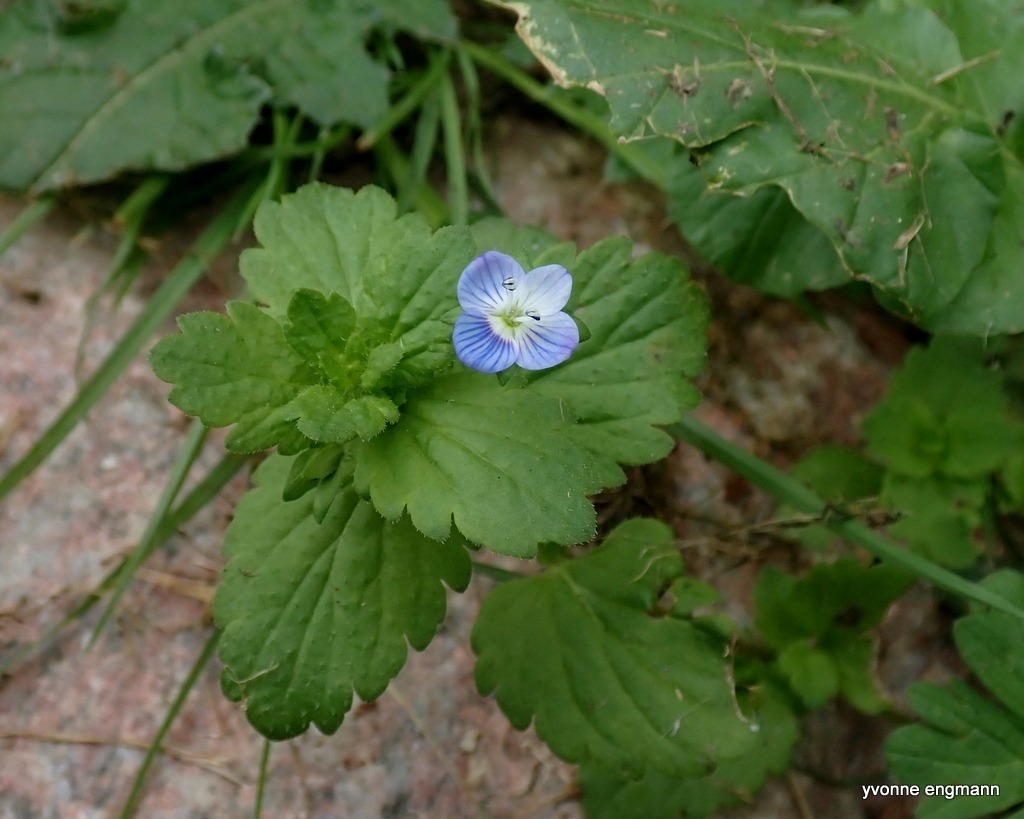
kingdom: Plantae
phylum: Tracheophyta
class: Magnoliopsida
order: Lamiales
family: Plantaginaceae
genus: Veronica
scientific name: Veronica persica
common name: Storkronet ærenpris
